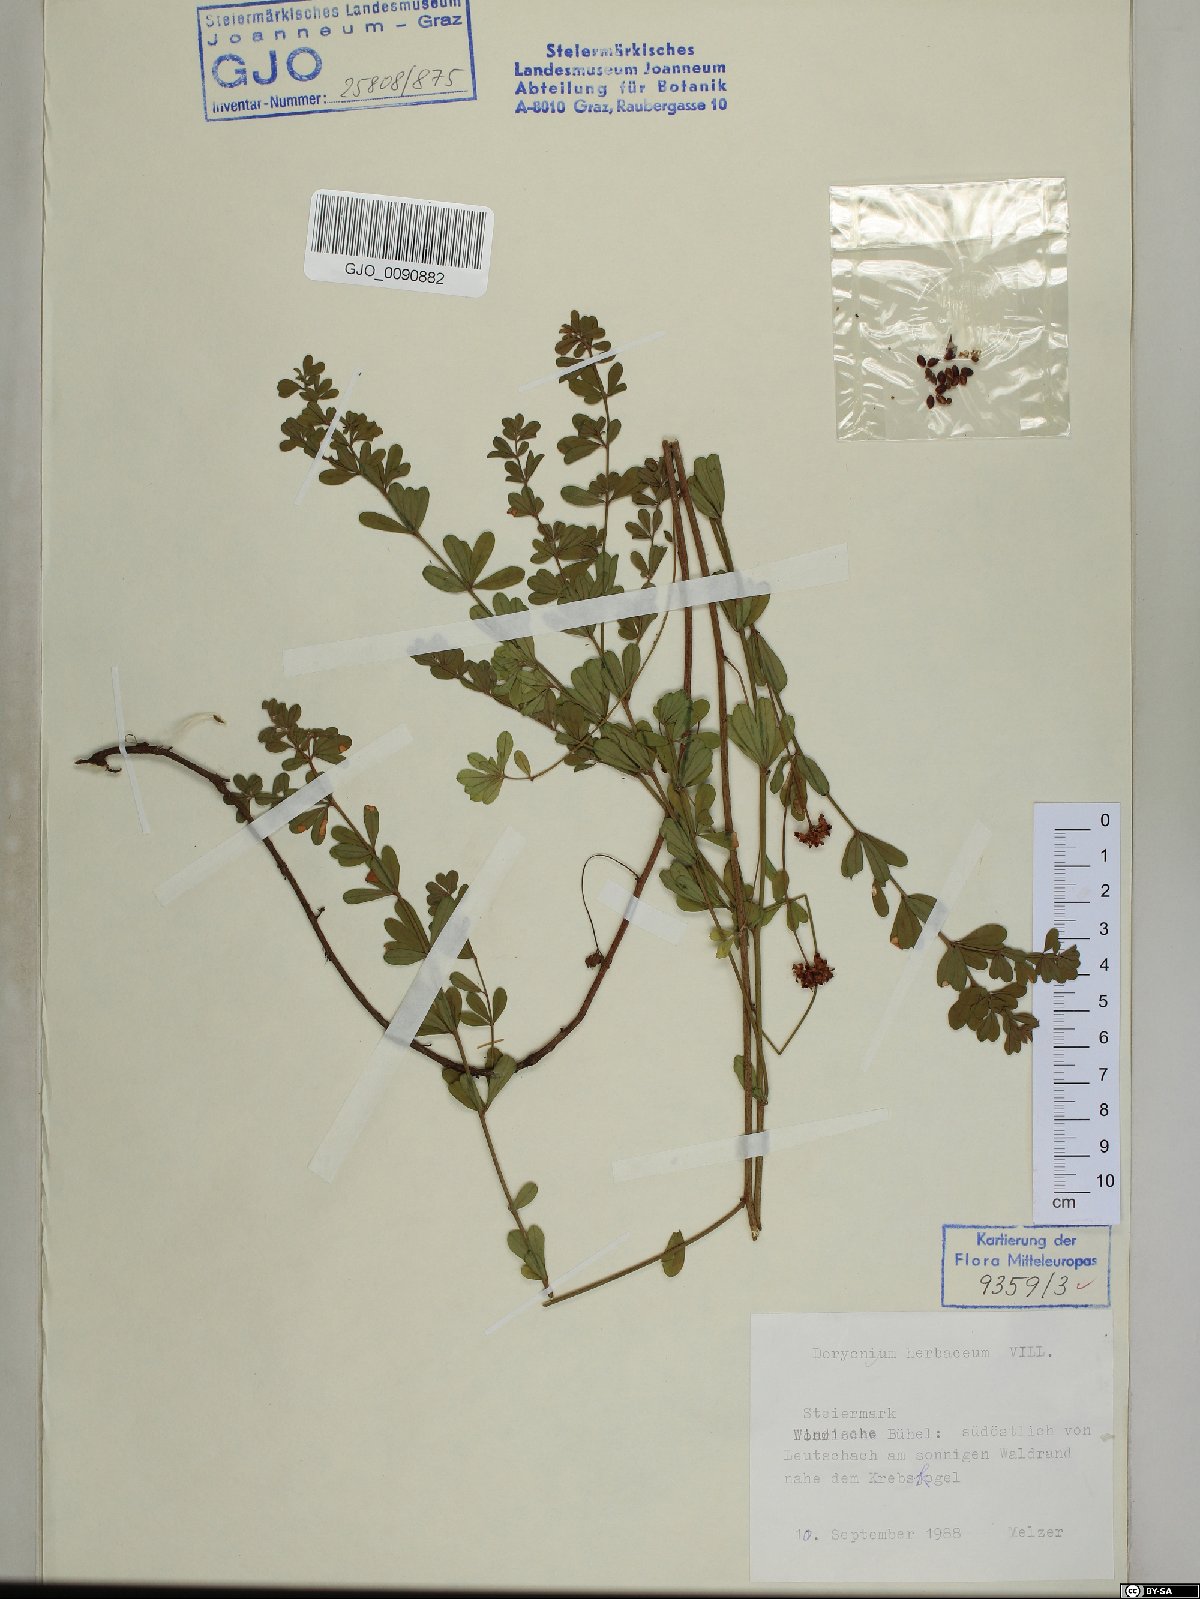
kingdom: Plantae
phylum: Tracheophyta
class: Magnoliopsida
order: Fabales
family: Fabaceae
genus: Lotus
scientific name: Lotus herbaceus
